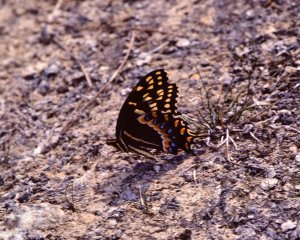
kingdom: Animalia
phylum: Arthropoda
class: Insecta
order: Lepidoptera
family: Papilionidae
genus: Pterourus
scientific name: Pterourus palamedes
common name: Palamedes Swallowtail
